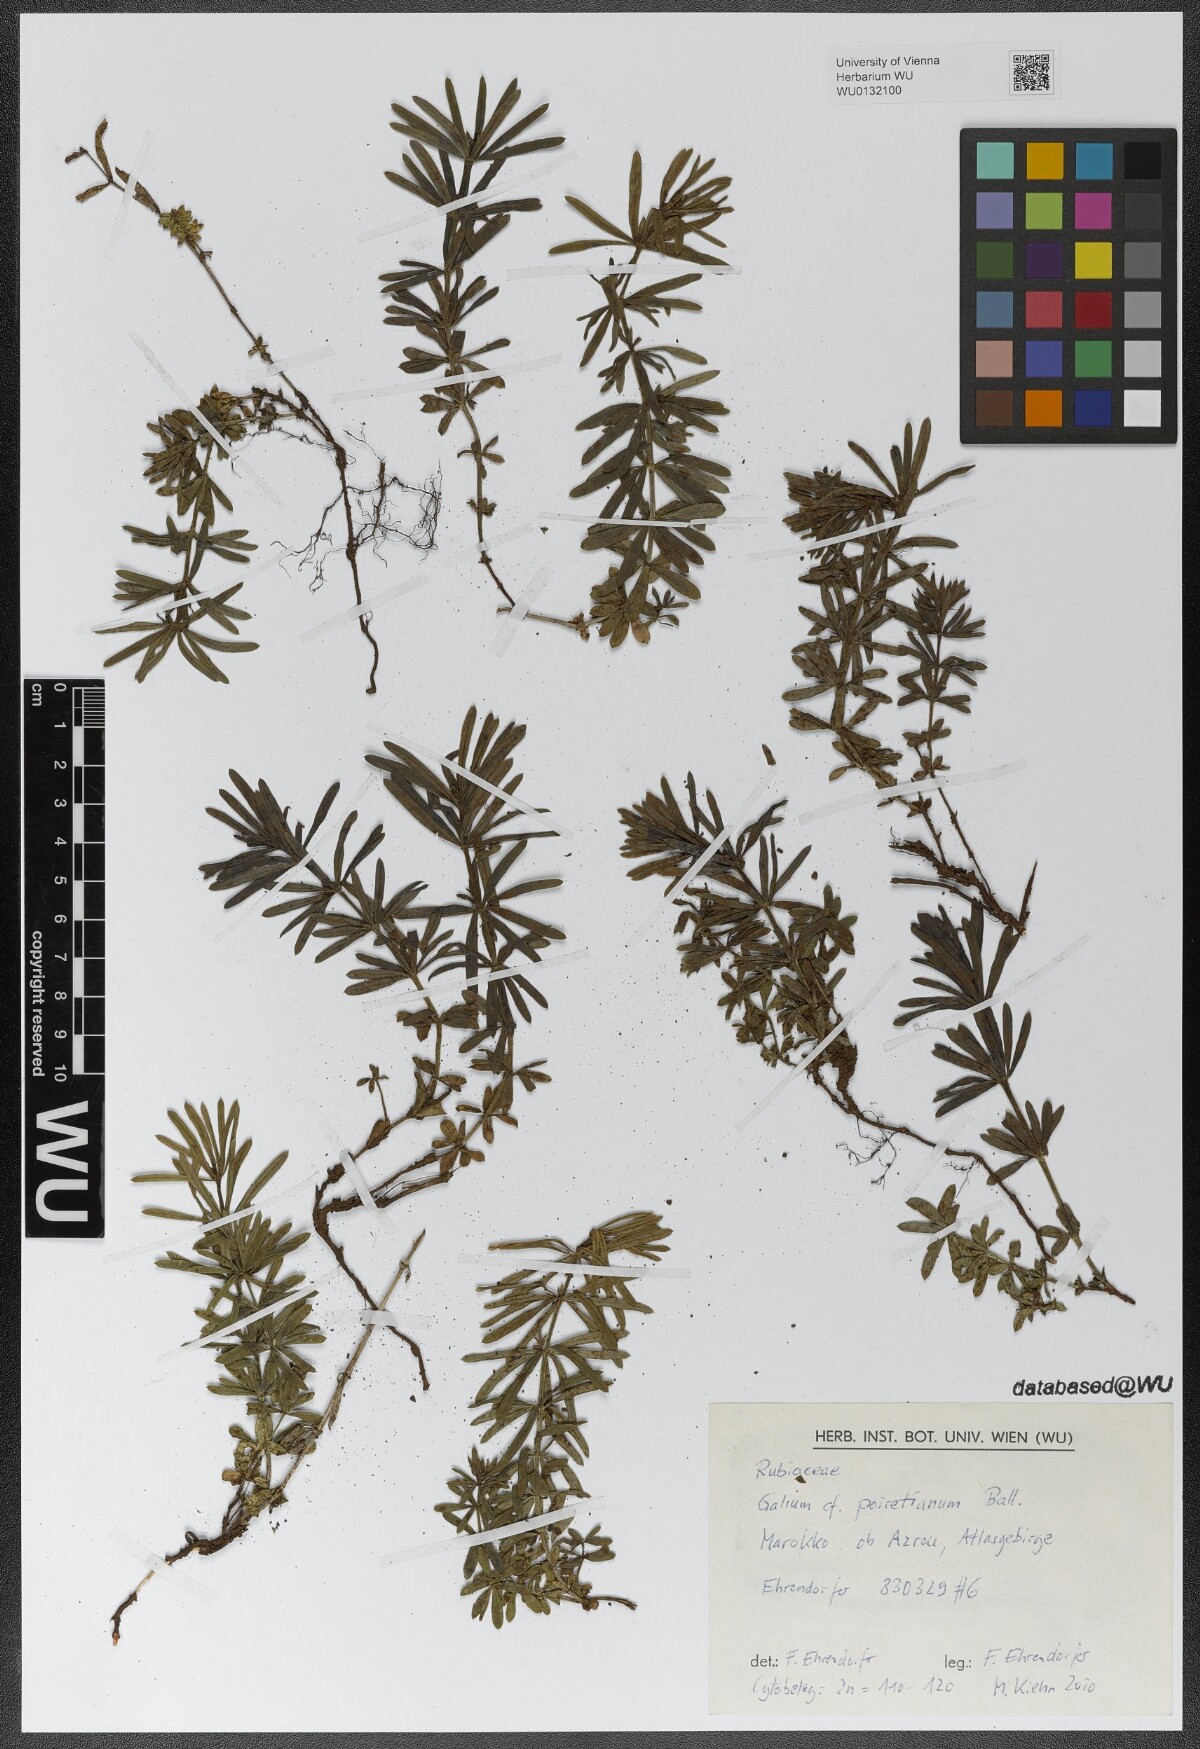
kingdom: Plantae
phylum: Tracheophyta
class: Magnoliopsida
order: Gentianales
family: Rubiaceae
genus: Galium
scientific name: Galium poiretianum
